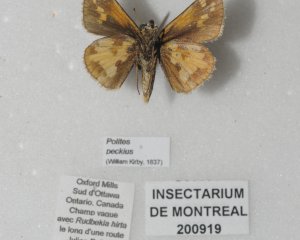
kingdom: Animalia
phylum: Arthropoda
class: Insecta
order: Lepidoptera
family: Hesperiidae
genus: Polites
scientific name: Polites coras
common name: Peck's Skipper
